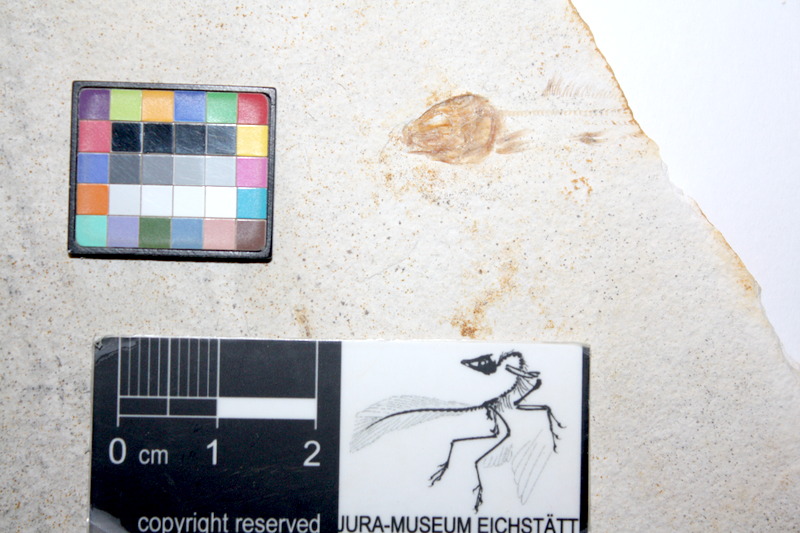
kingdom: Animalia
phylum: Chordata
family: Ophiopsiellidae
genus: Ophiopsiella
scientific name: Ophiopsiella attenuata
